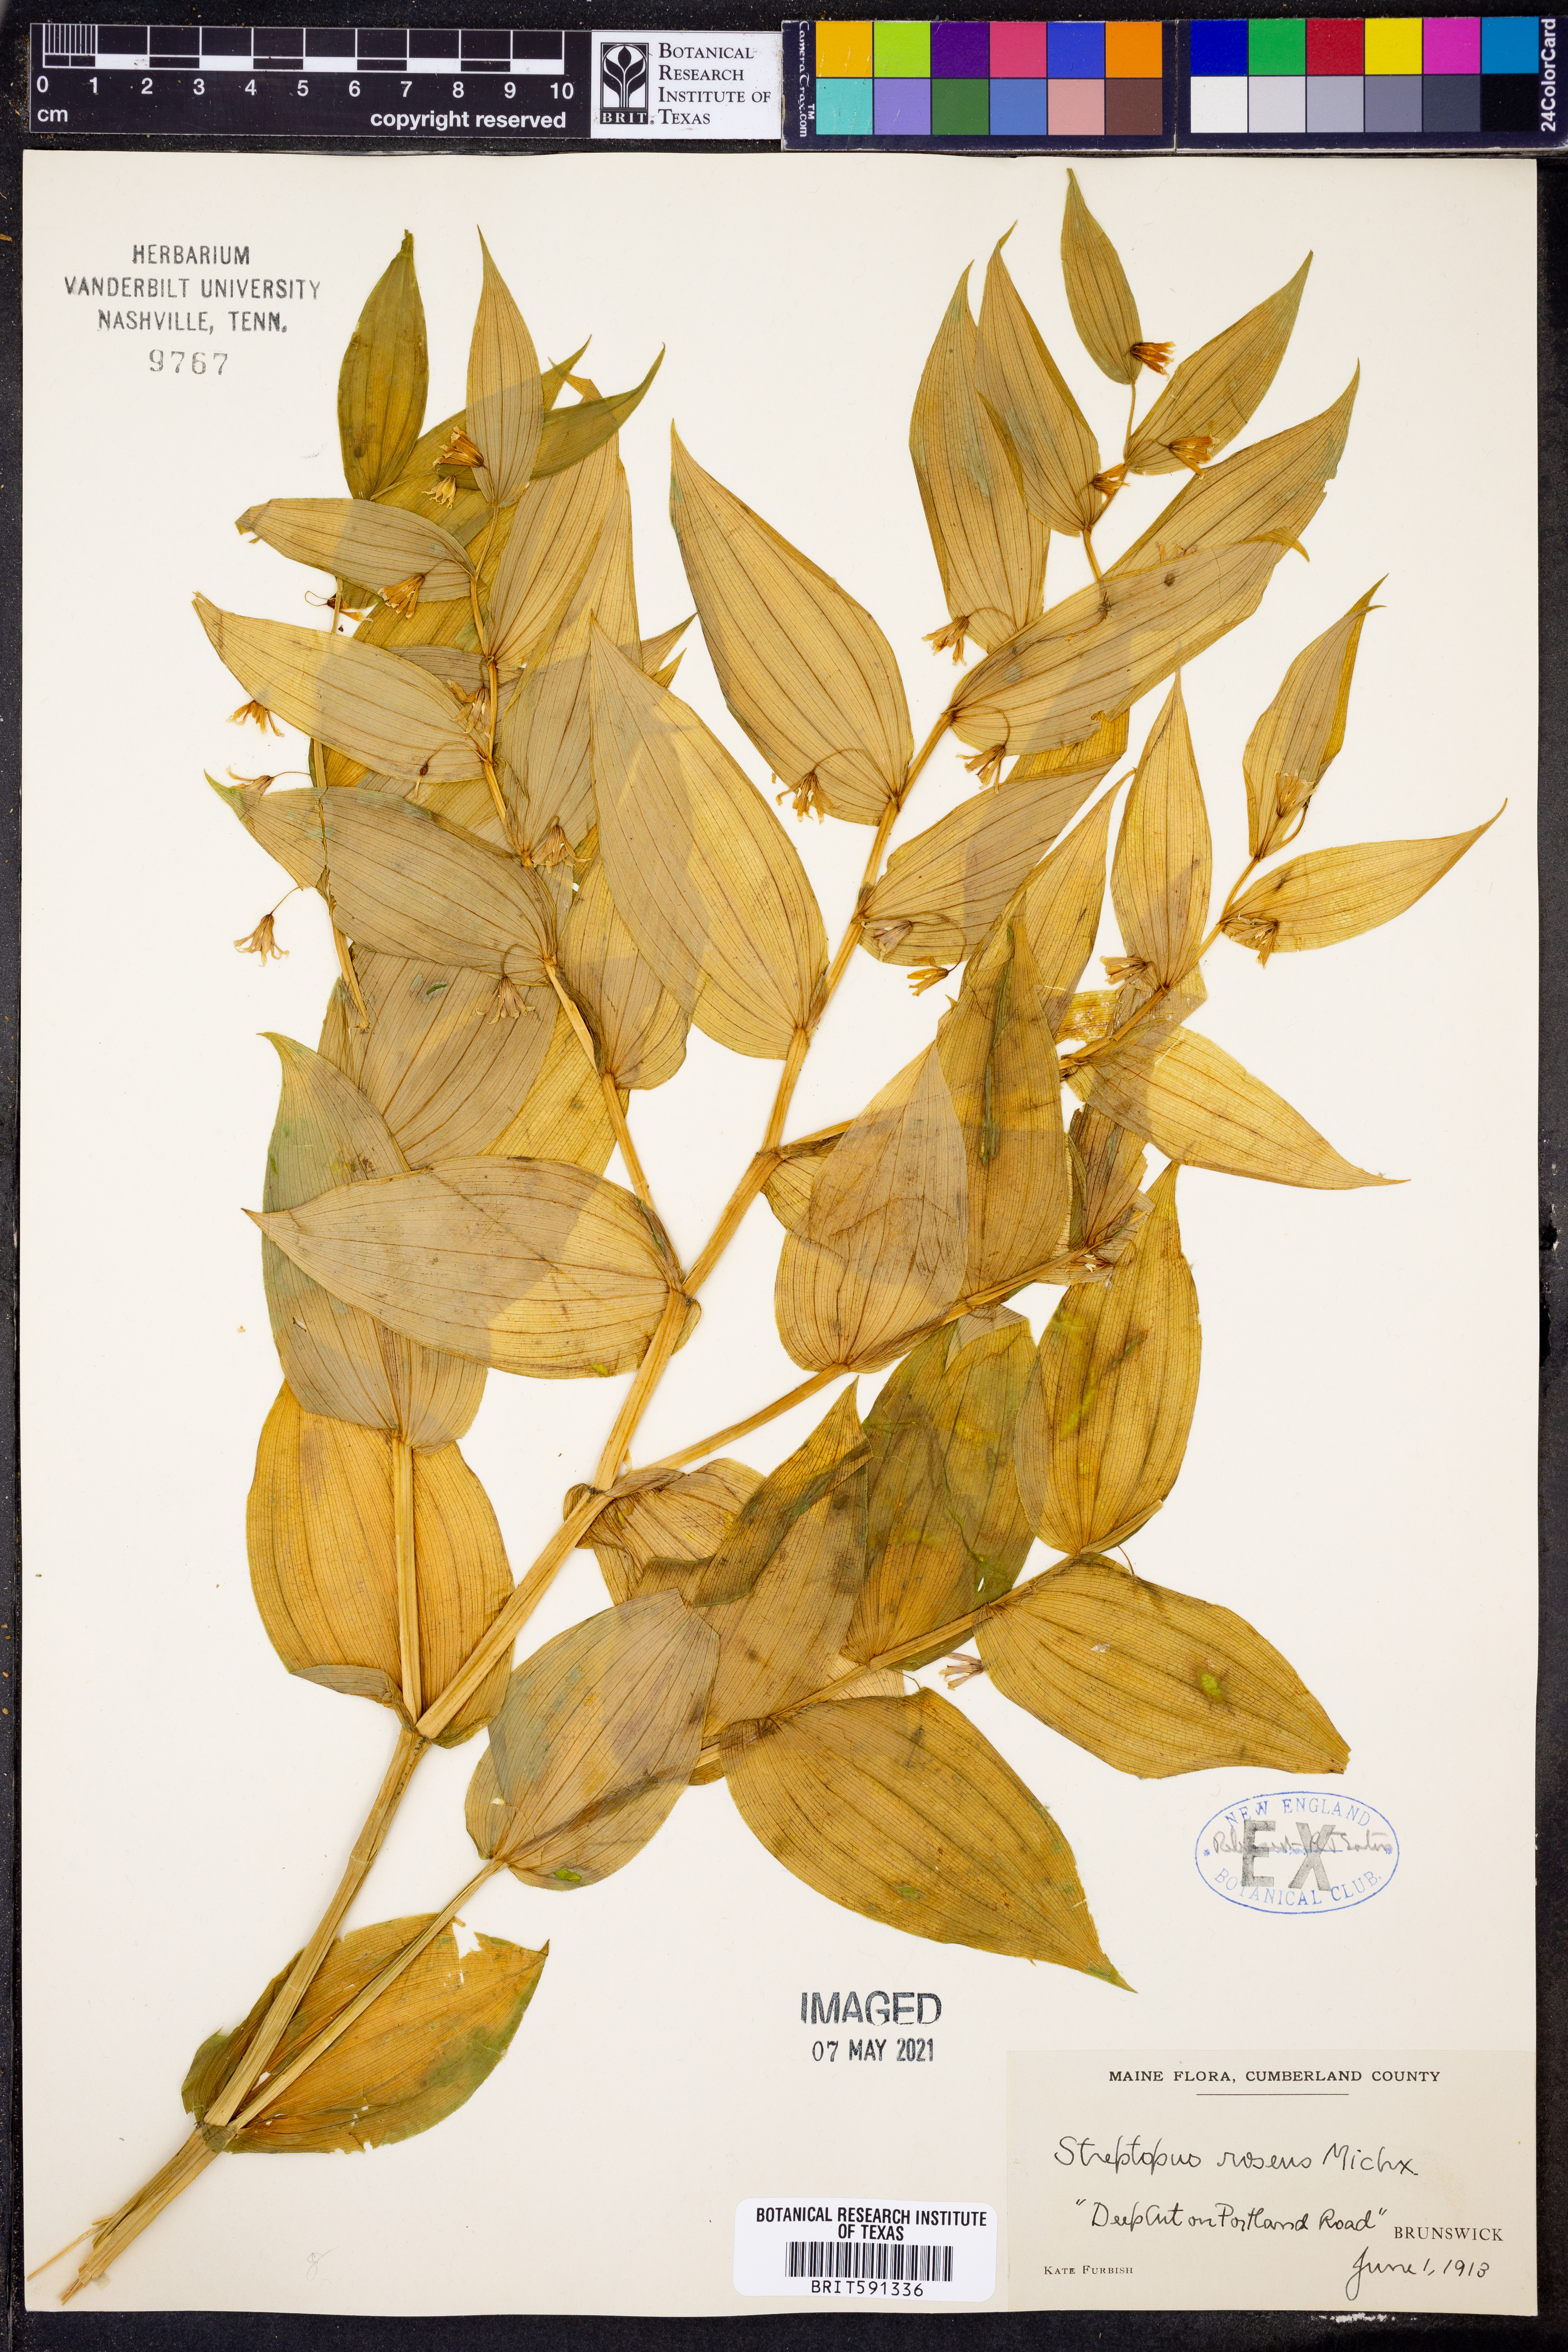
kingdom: Plantae
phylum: Tracheophyta
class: Liliopsida
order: Liliales
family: Liliaceae
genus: Streptopus
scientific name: Streptopus lanceolatus
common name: Rose mandarin
